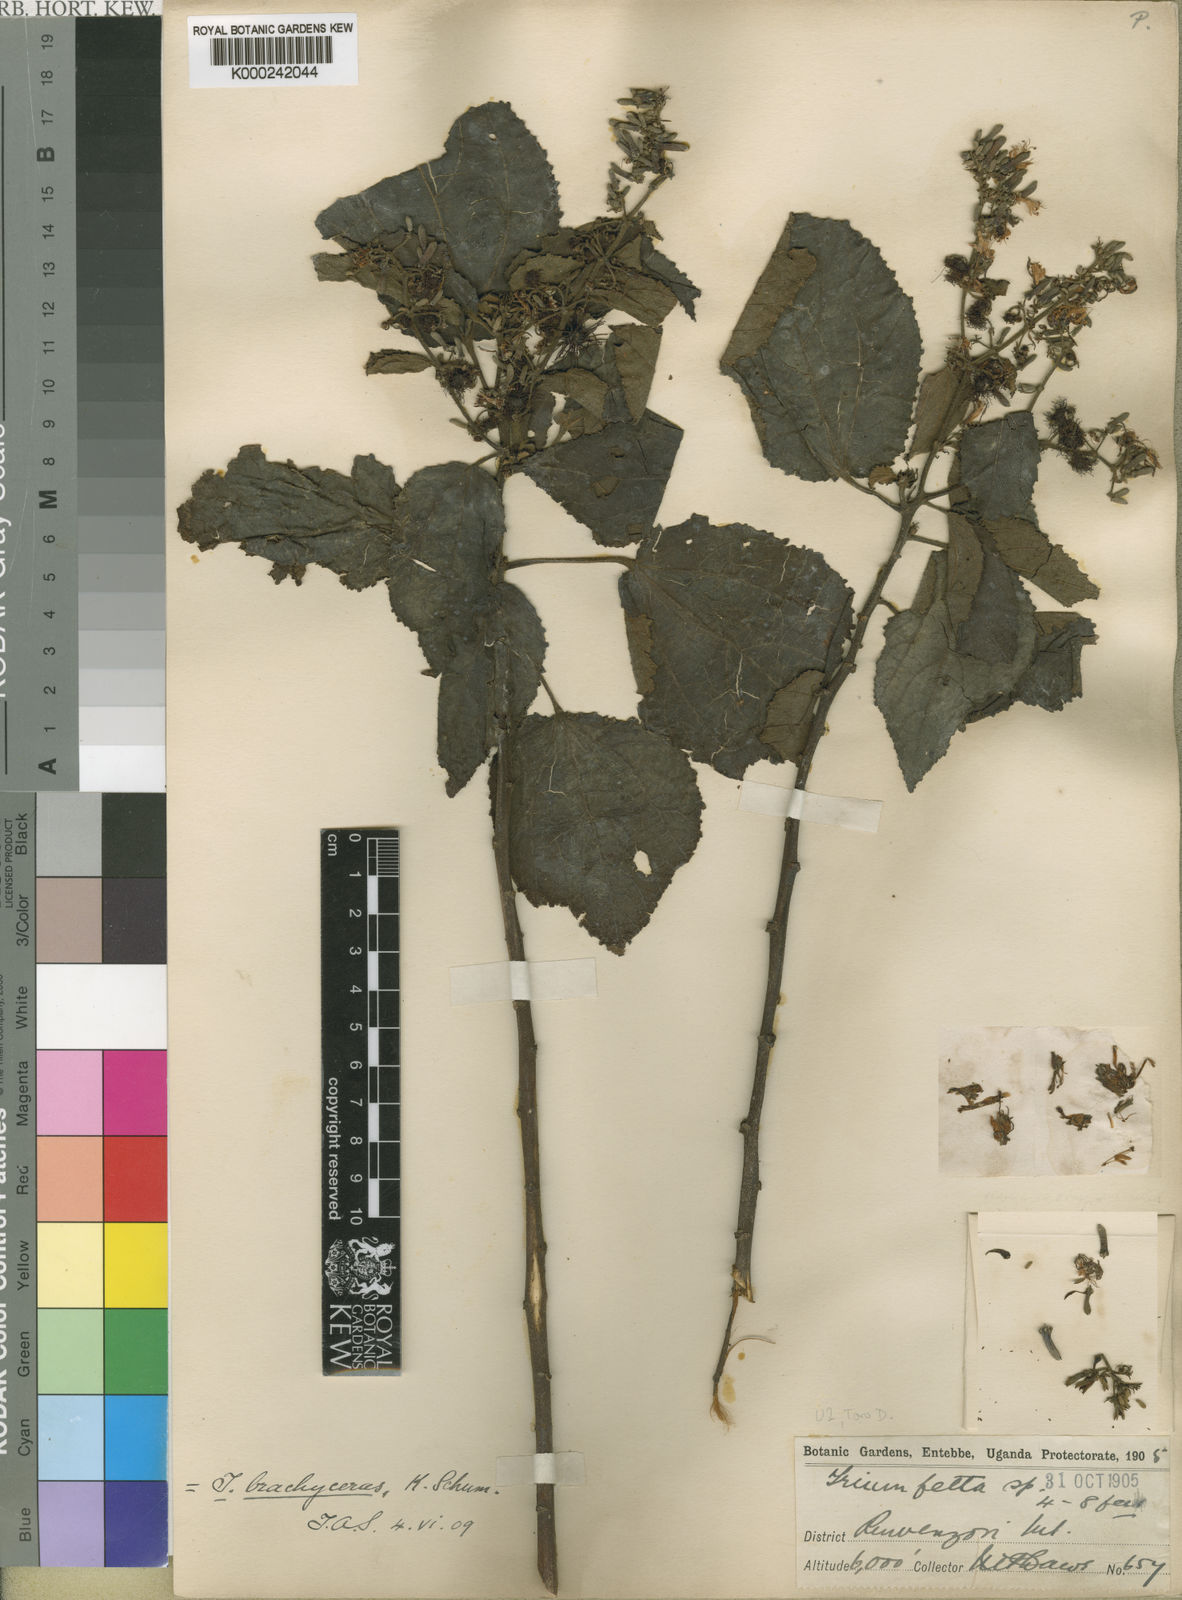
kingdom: Plantae
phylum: Tracheophyta
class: Magnoliopsida
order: Malvales
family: Malvaceae
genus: Triumfetta
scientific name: Triumfetta brachyceras
